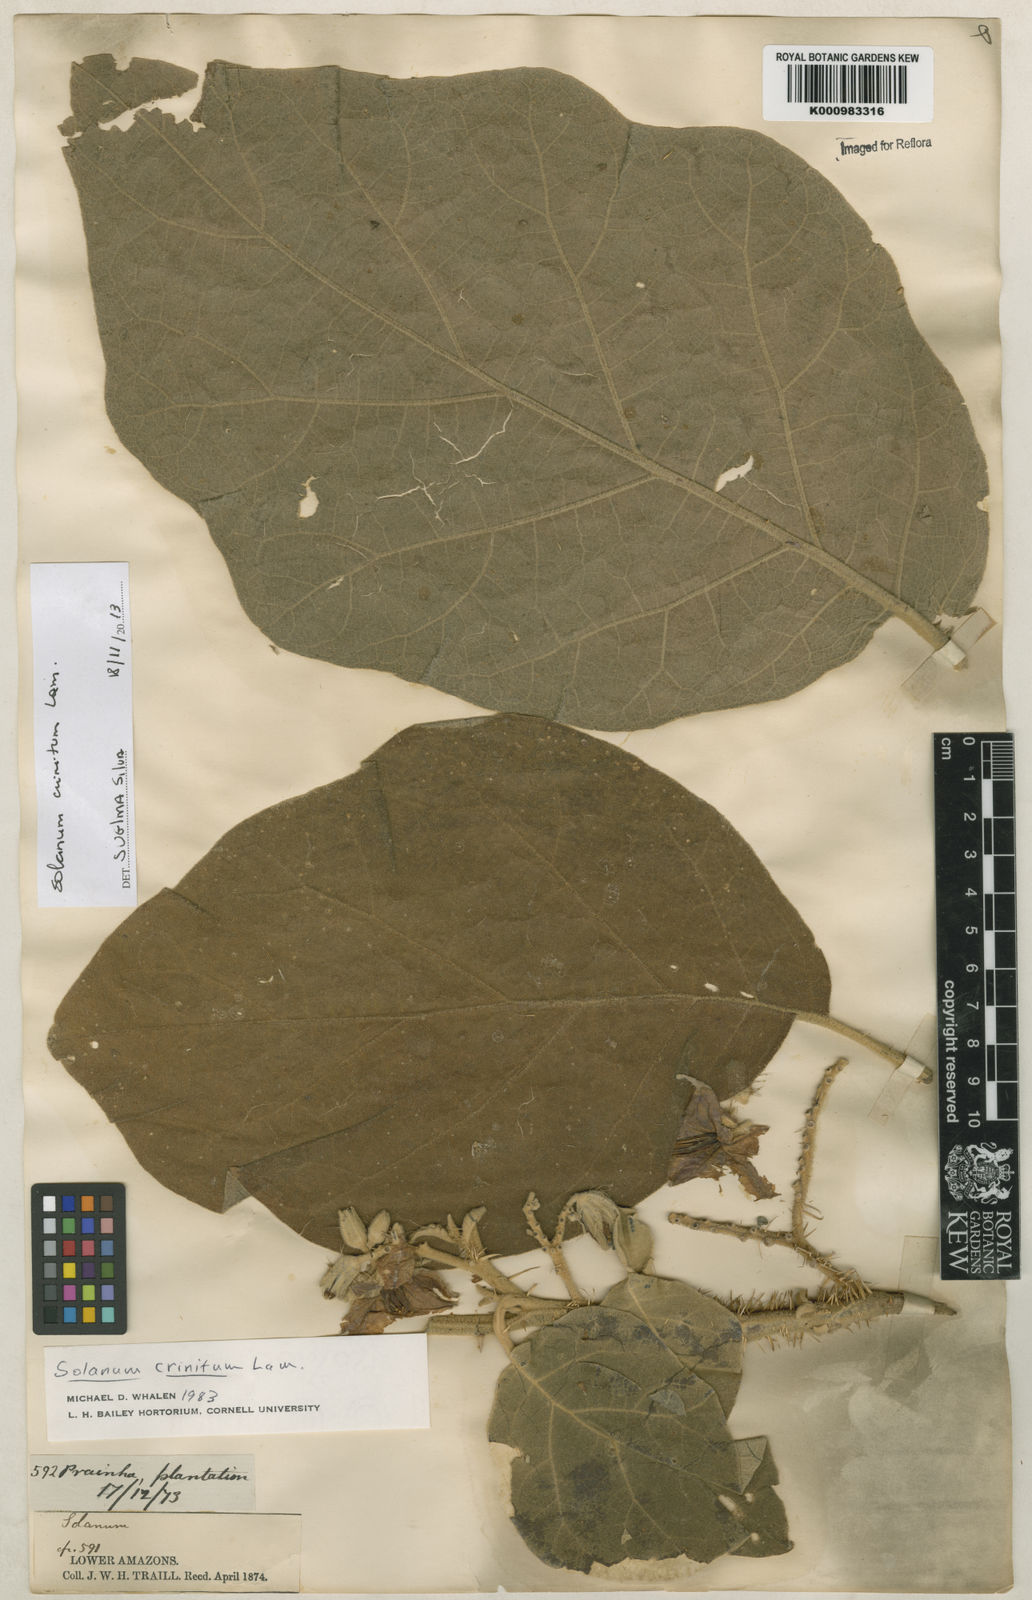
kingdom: Plantae
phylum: Tracheophyta
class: Magnoliopsida
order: Solanales
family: Solanaceae
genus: Solanum
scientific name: Solanum crinitum
